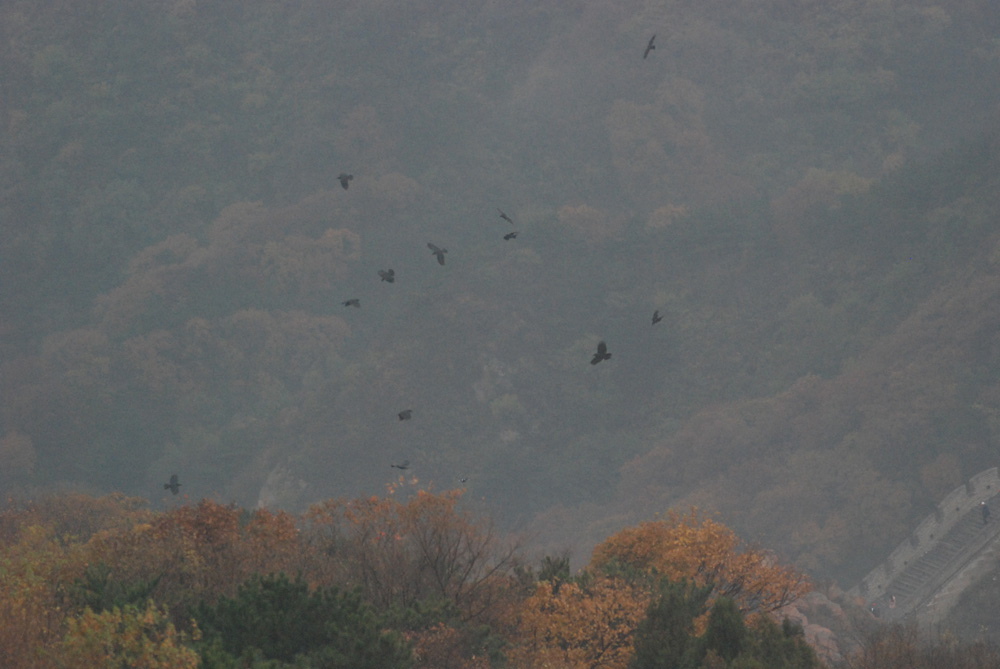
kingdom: Animalia
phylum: Chordata
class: Aves
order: Passeriformes
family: Corvidae
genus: Corvus
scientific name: Corvus macrorhynchos
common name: Large-billed crow
